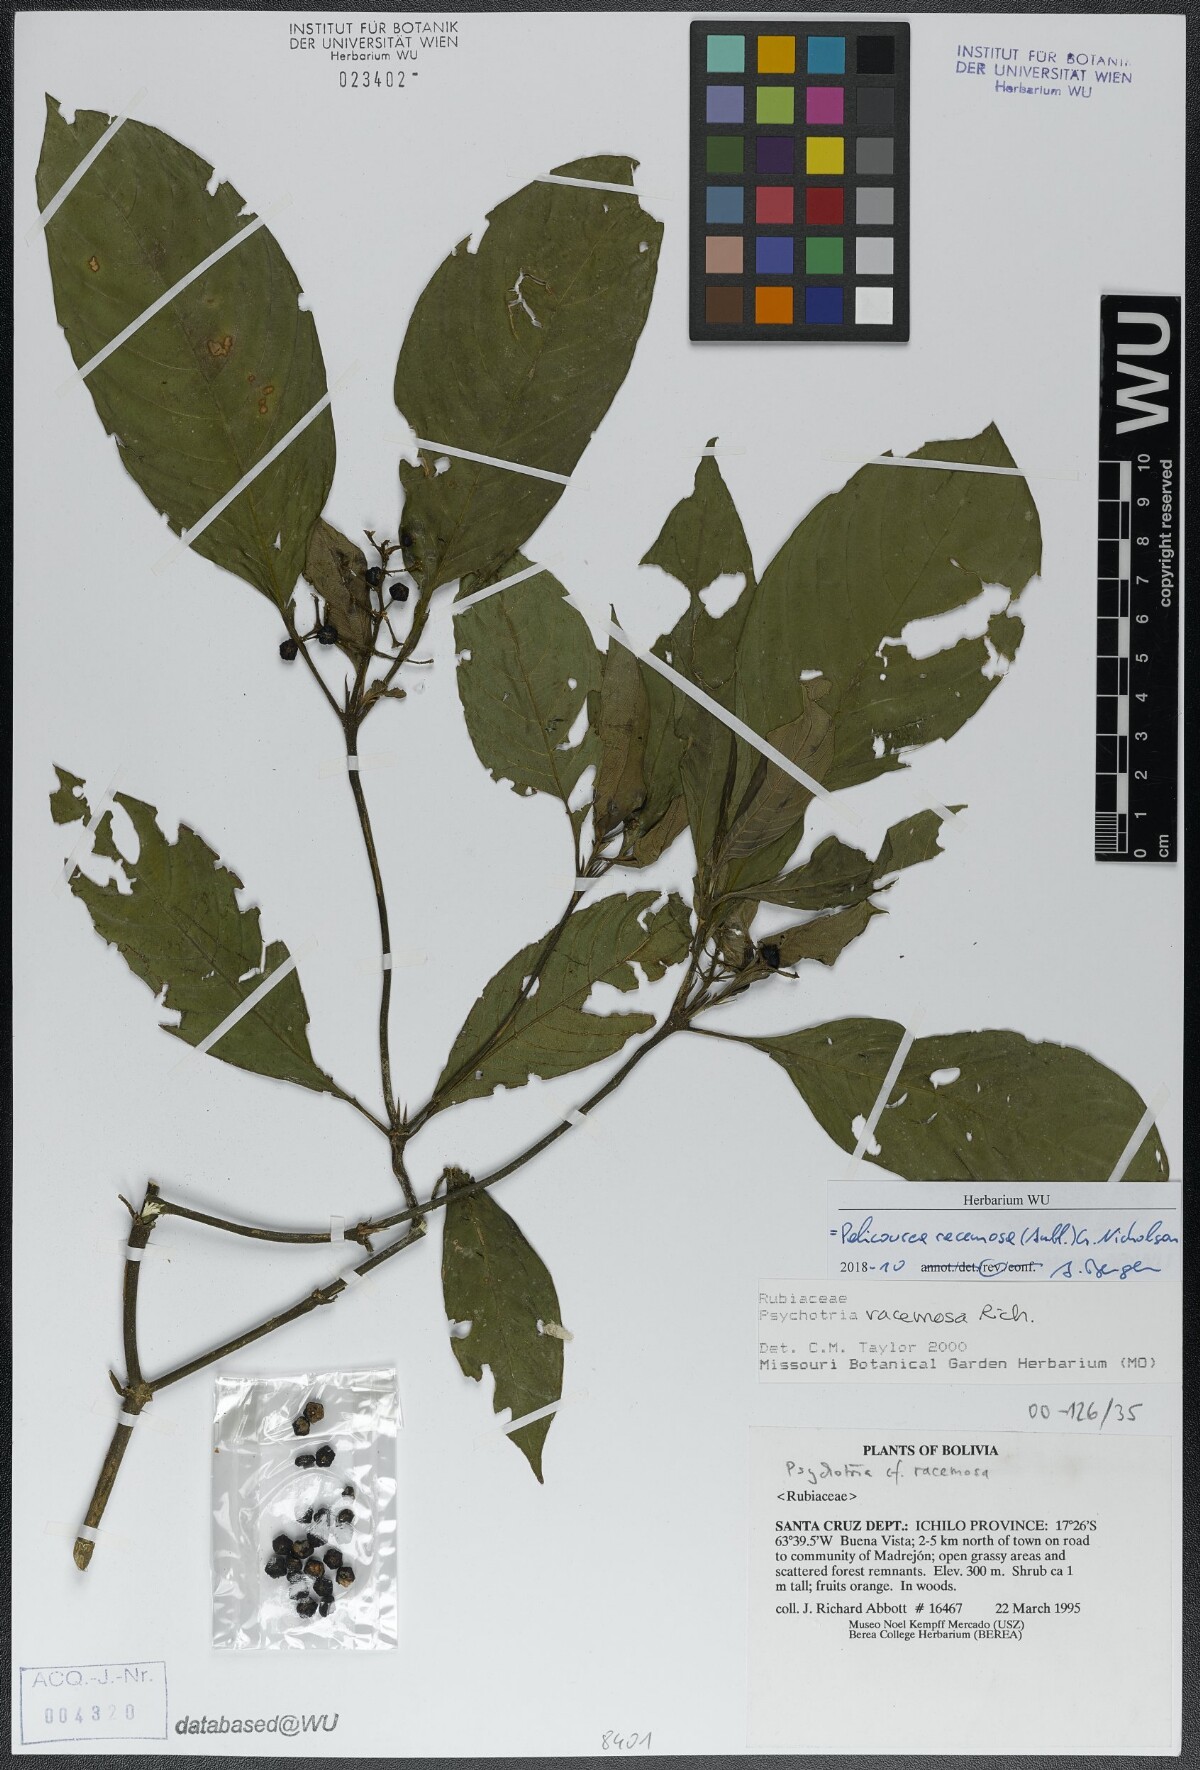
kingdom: Plantae
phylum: Tracheophyta
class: Magnoliopsida
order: Gentianales
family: Rubiaceae
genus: Palicourea
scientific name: Palicourea racemosa
